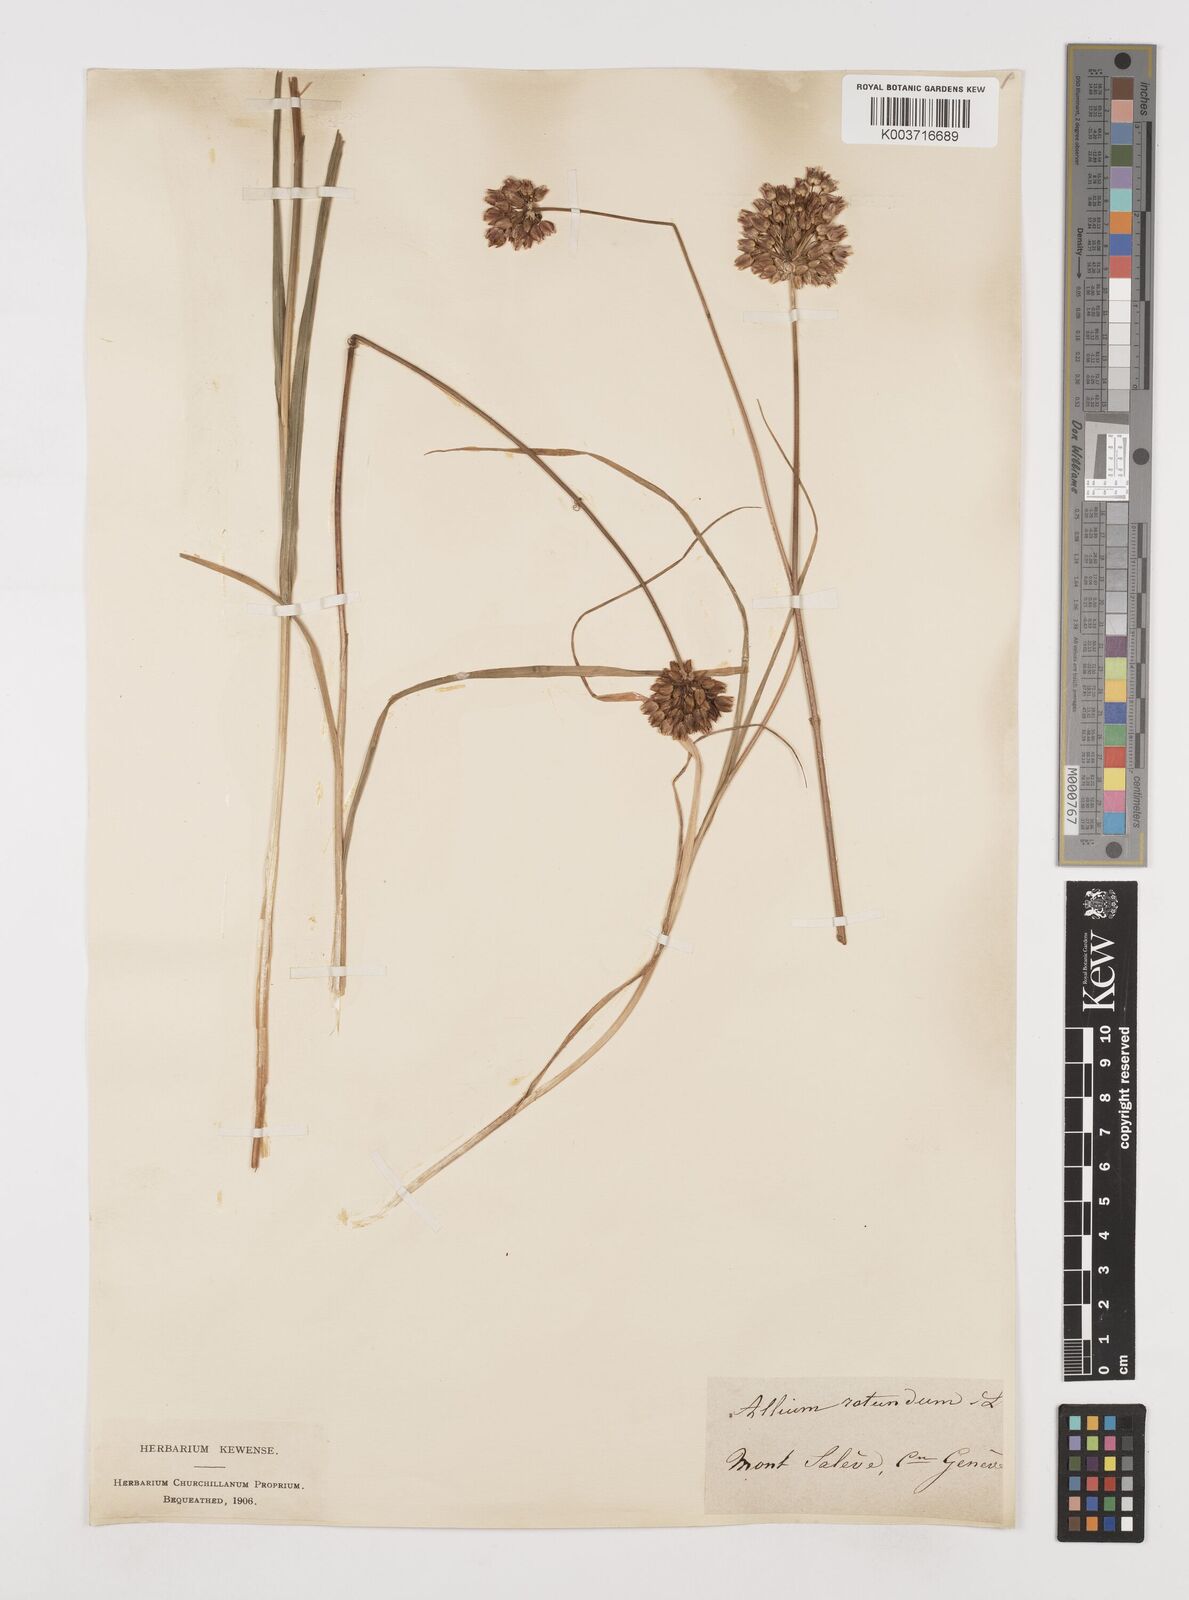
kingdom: Plantae
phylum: Tracheophyta
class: Liliopsida
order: Asparagales
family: Amaryllidaceae
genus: Allium
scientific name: Allium rotundum
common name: Sand leek
